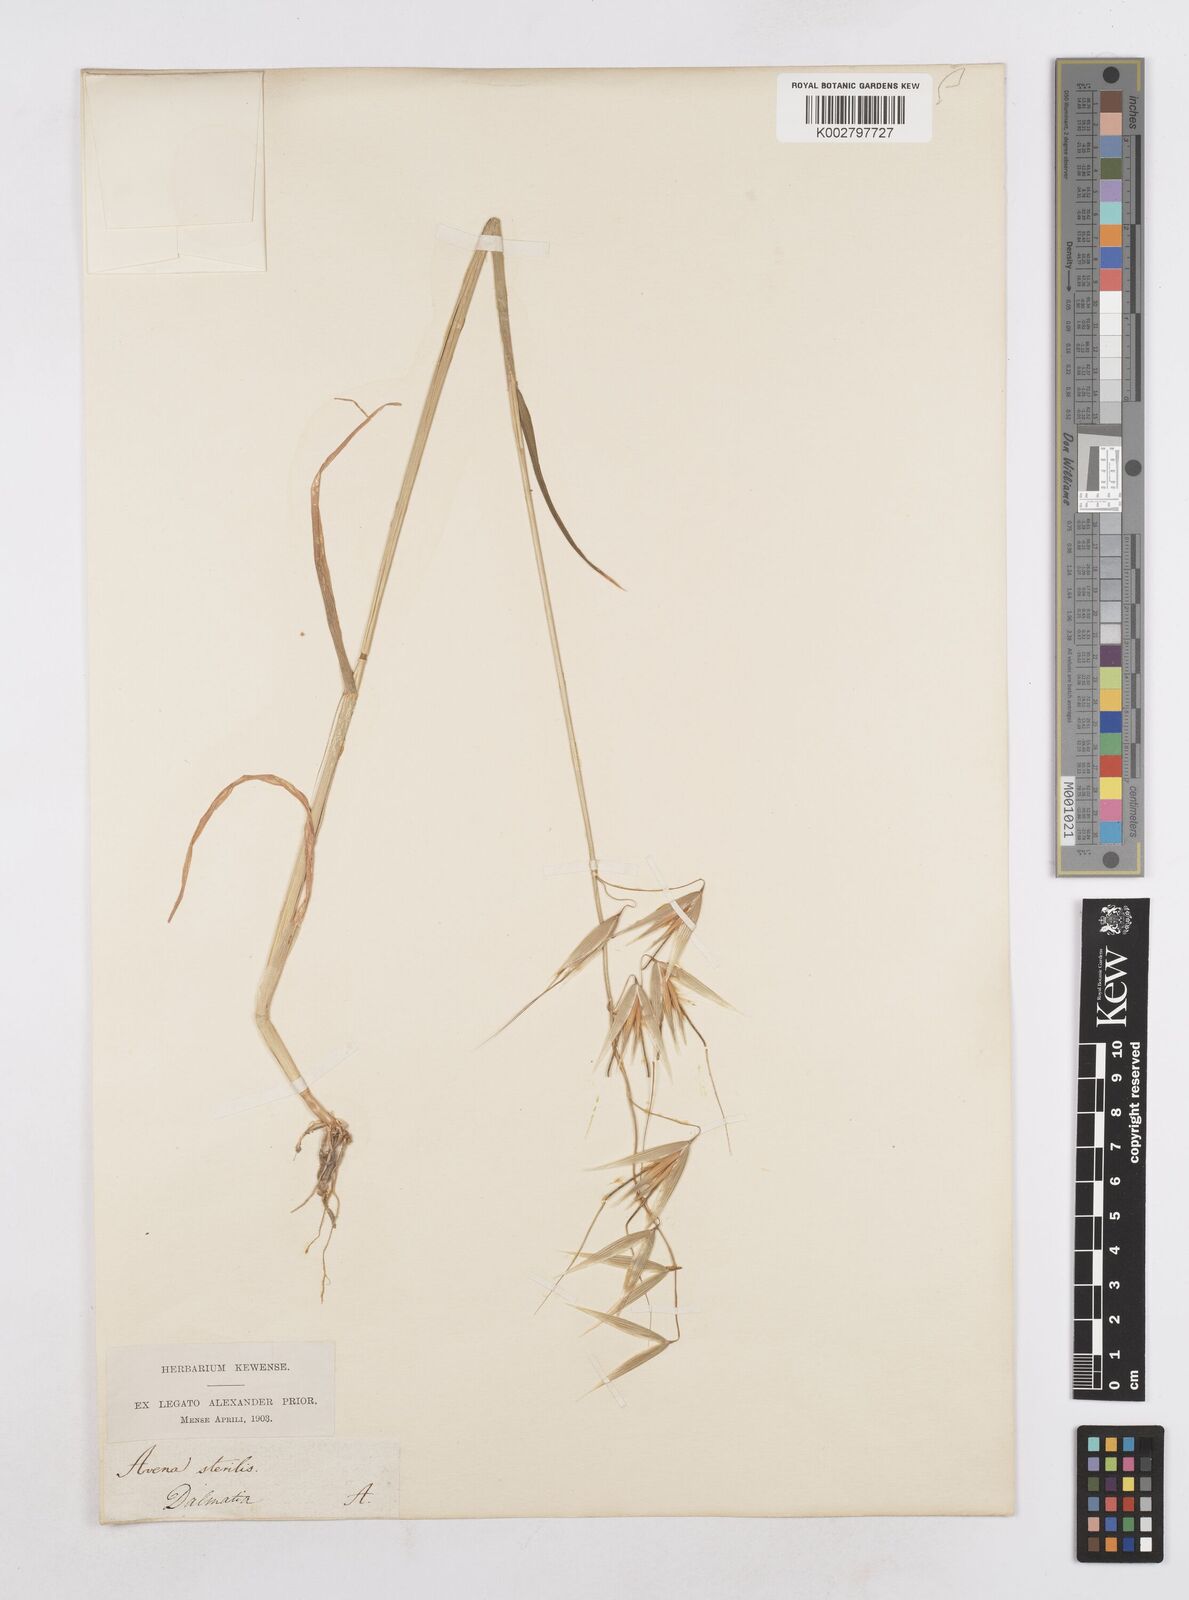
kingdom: Plantae
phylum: Tracheophyta
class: Liliopsida
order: Poales
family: Poaceae
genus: Avena
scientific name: Avena sterilis
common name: Animated oat
